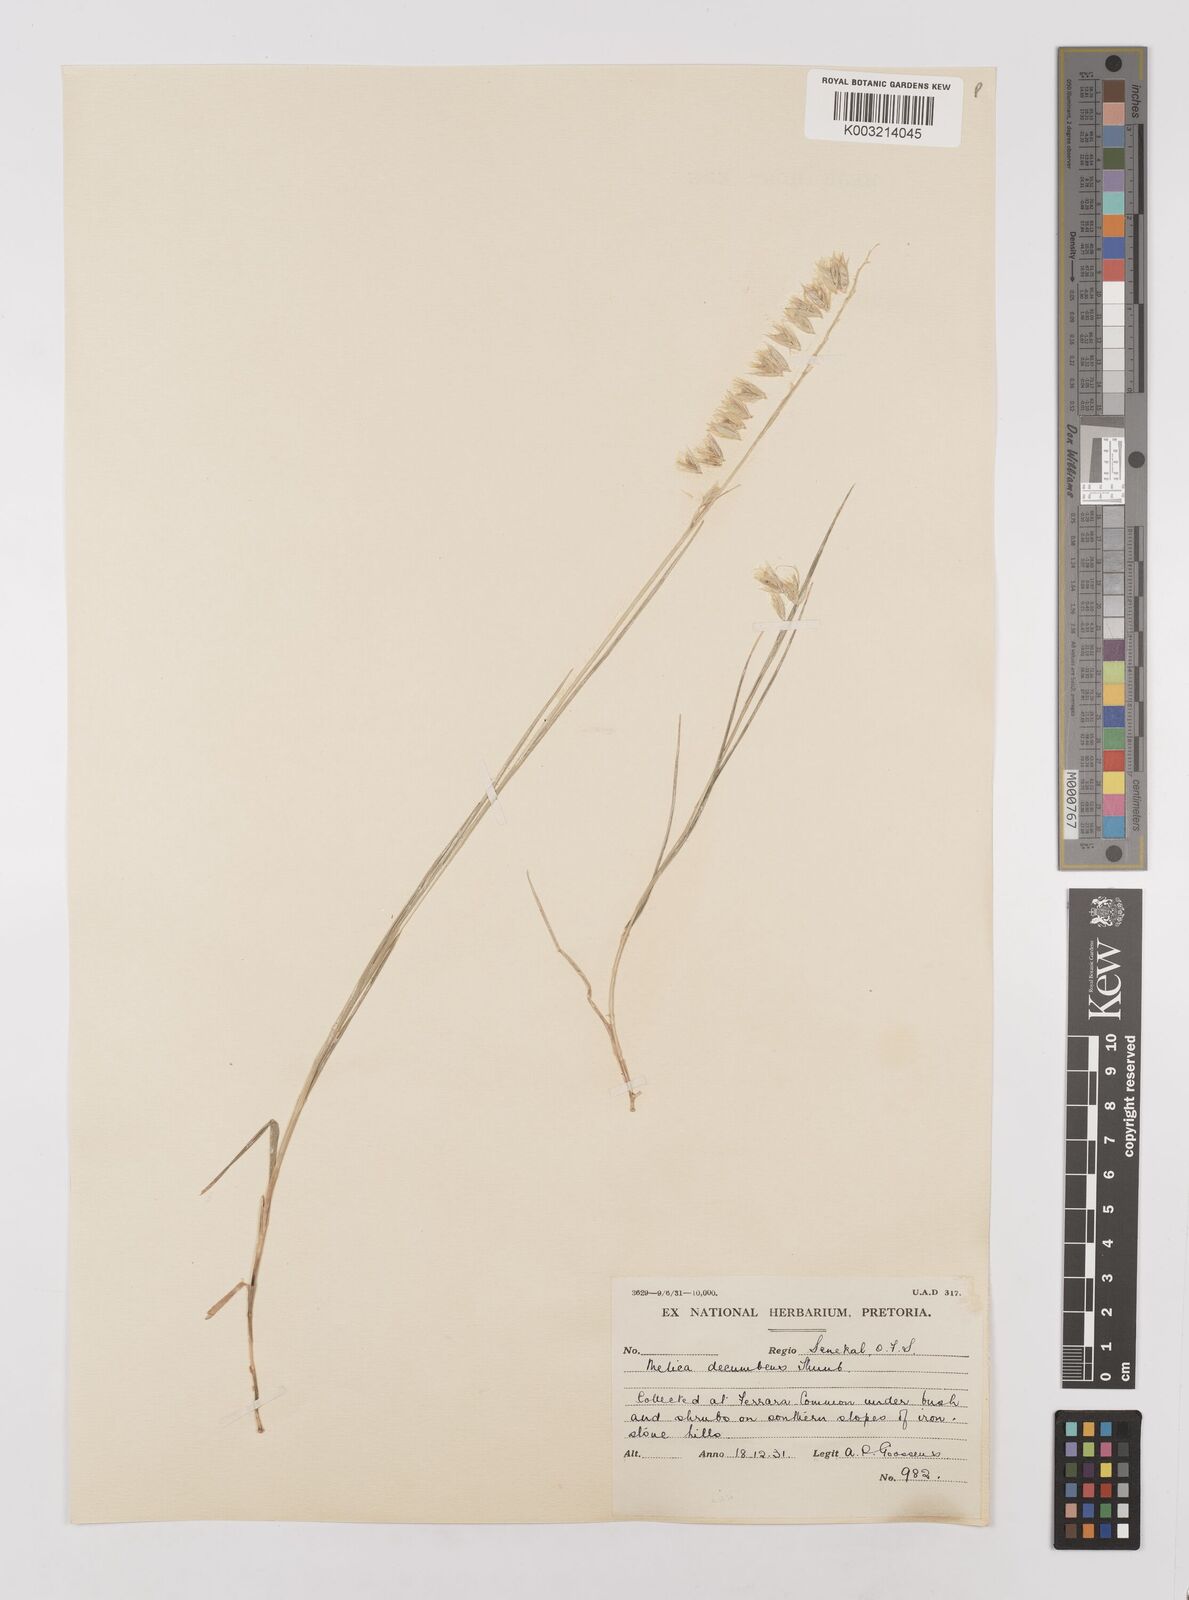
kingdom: Plantae
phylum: Tracheophyta
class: Liliopsida
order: Poales
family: Poaceae
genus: Melica
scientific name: Melica dendroides
